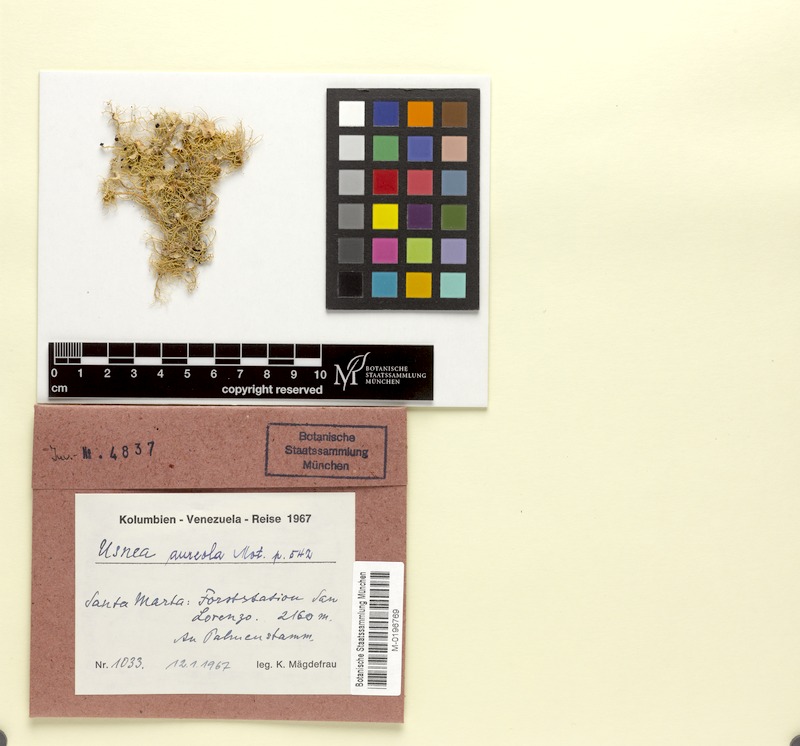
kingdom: Fungi
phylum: Ascomycota
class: Lecanoromycetes
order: Lecanorales
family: Parmeliaceae
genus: Usnea
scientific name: Usnea aureola
